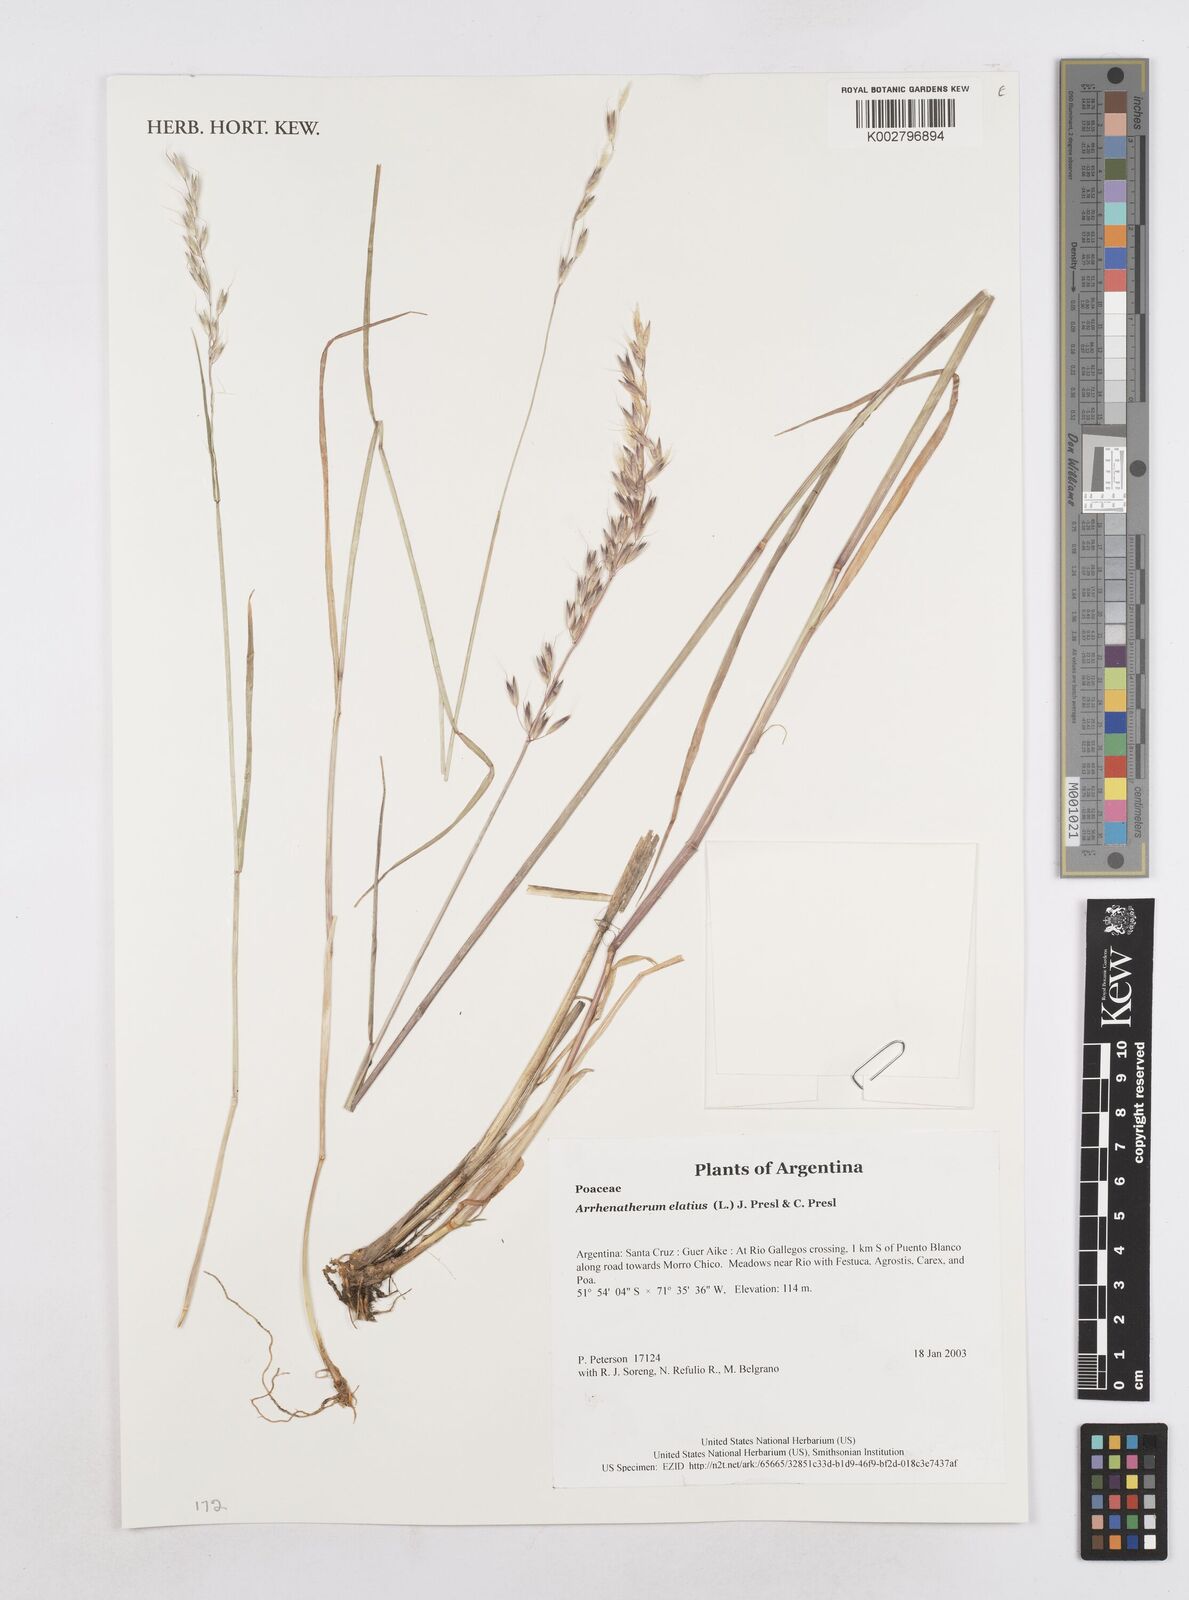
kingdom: Plantae
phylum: Tracheophyta
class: Liliopsida
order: Poales
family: Poaceae
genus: Arrhenatherum
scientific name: Arrhenatherum elatius
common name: Tall oatgrass
